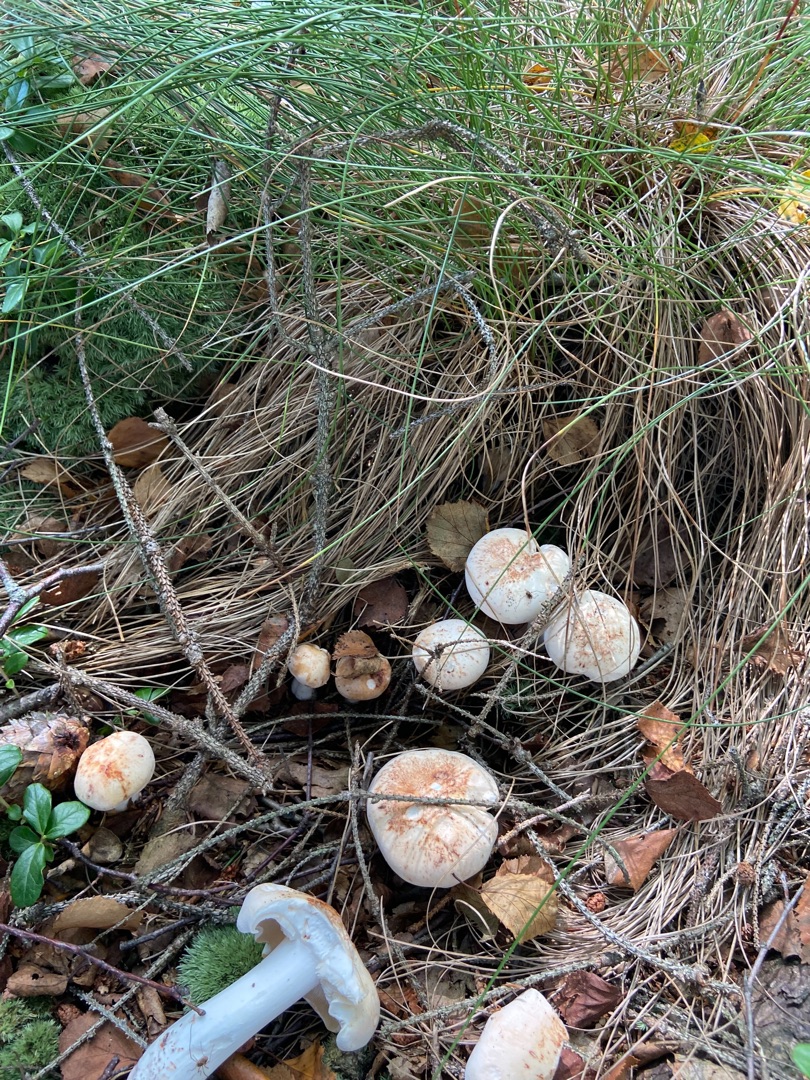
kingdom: Fungi
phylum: Basidiomycota
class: Agaricomycetes
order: Agaricales
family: Omphalotaceae
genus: Rhodocollybia
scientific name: Rhodocollybia maculata
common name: Plettet fladhat
